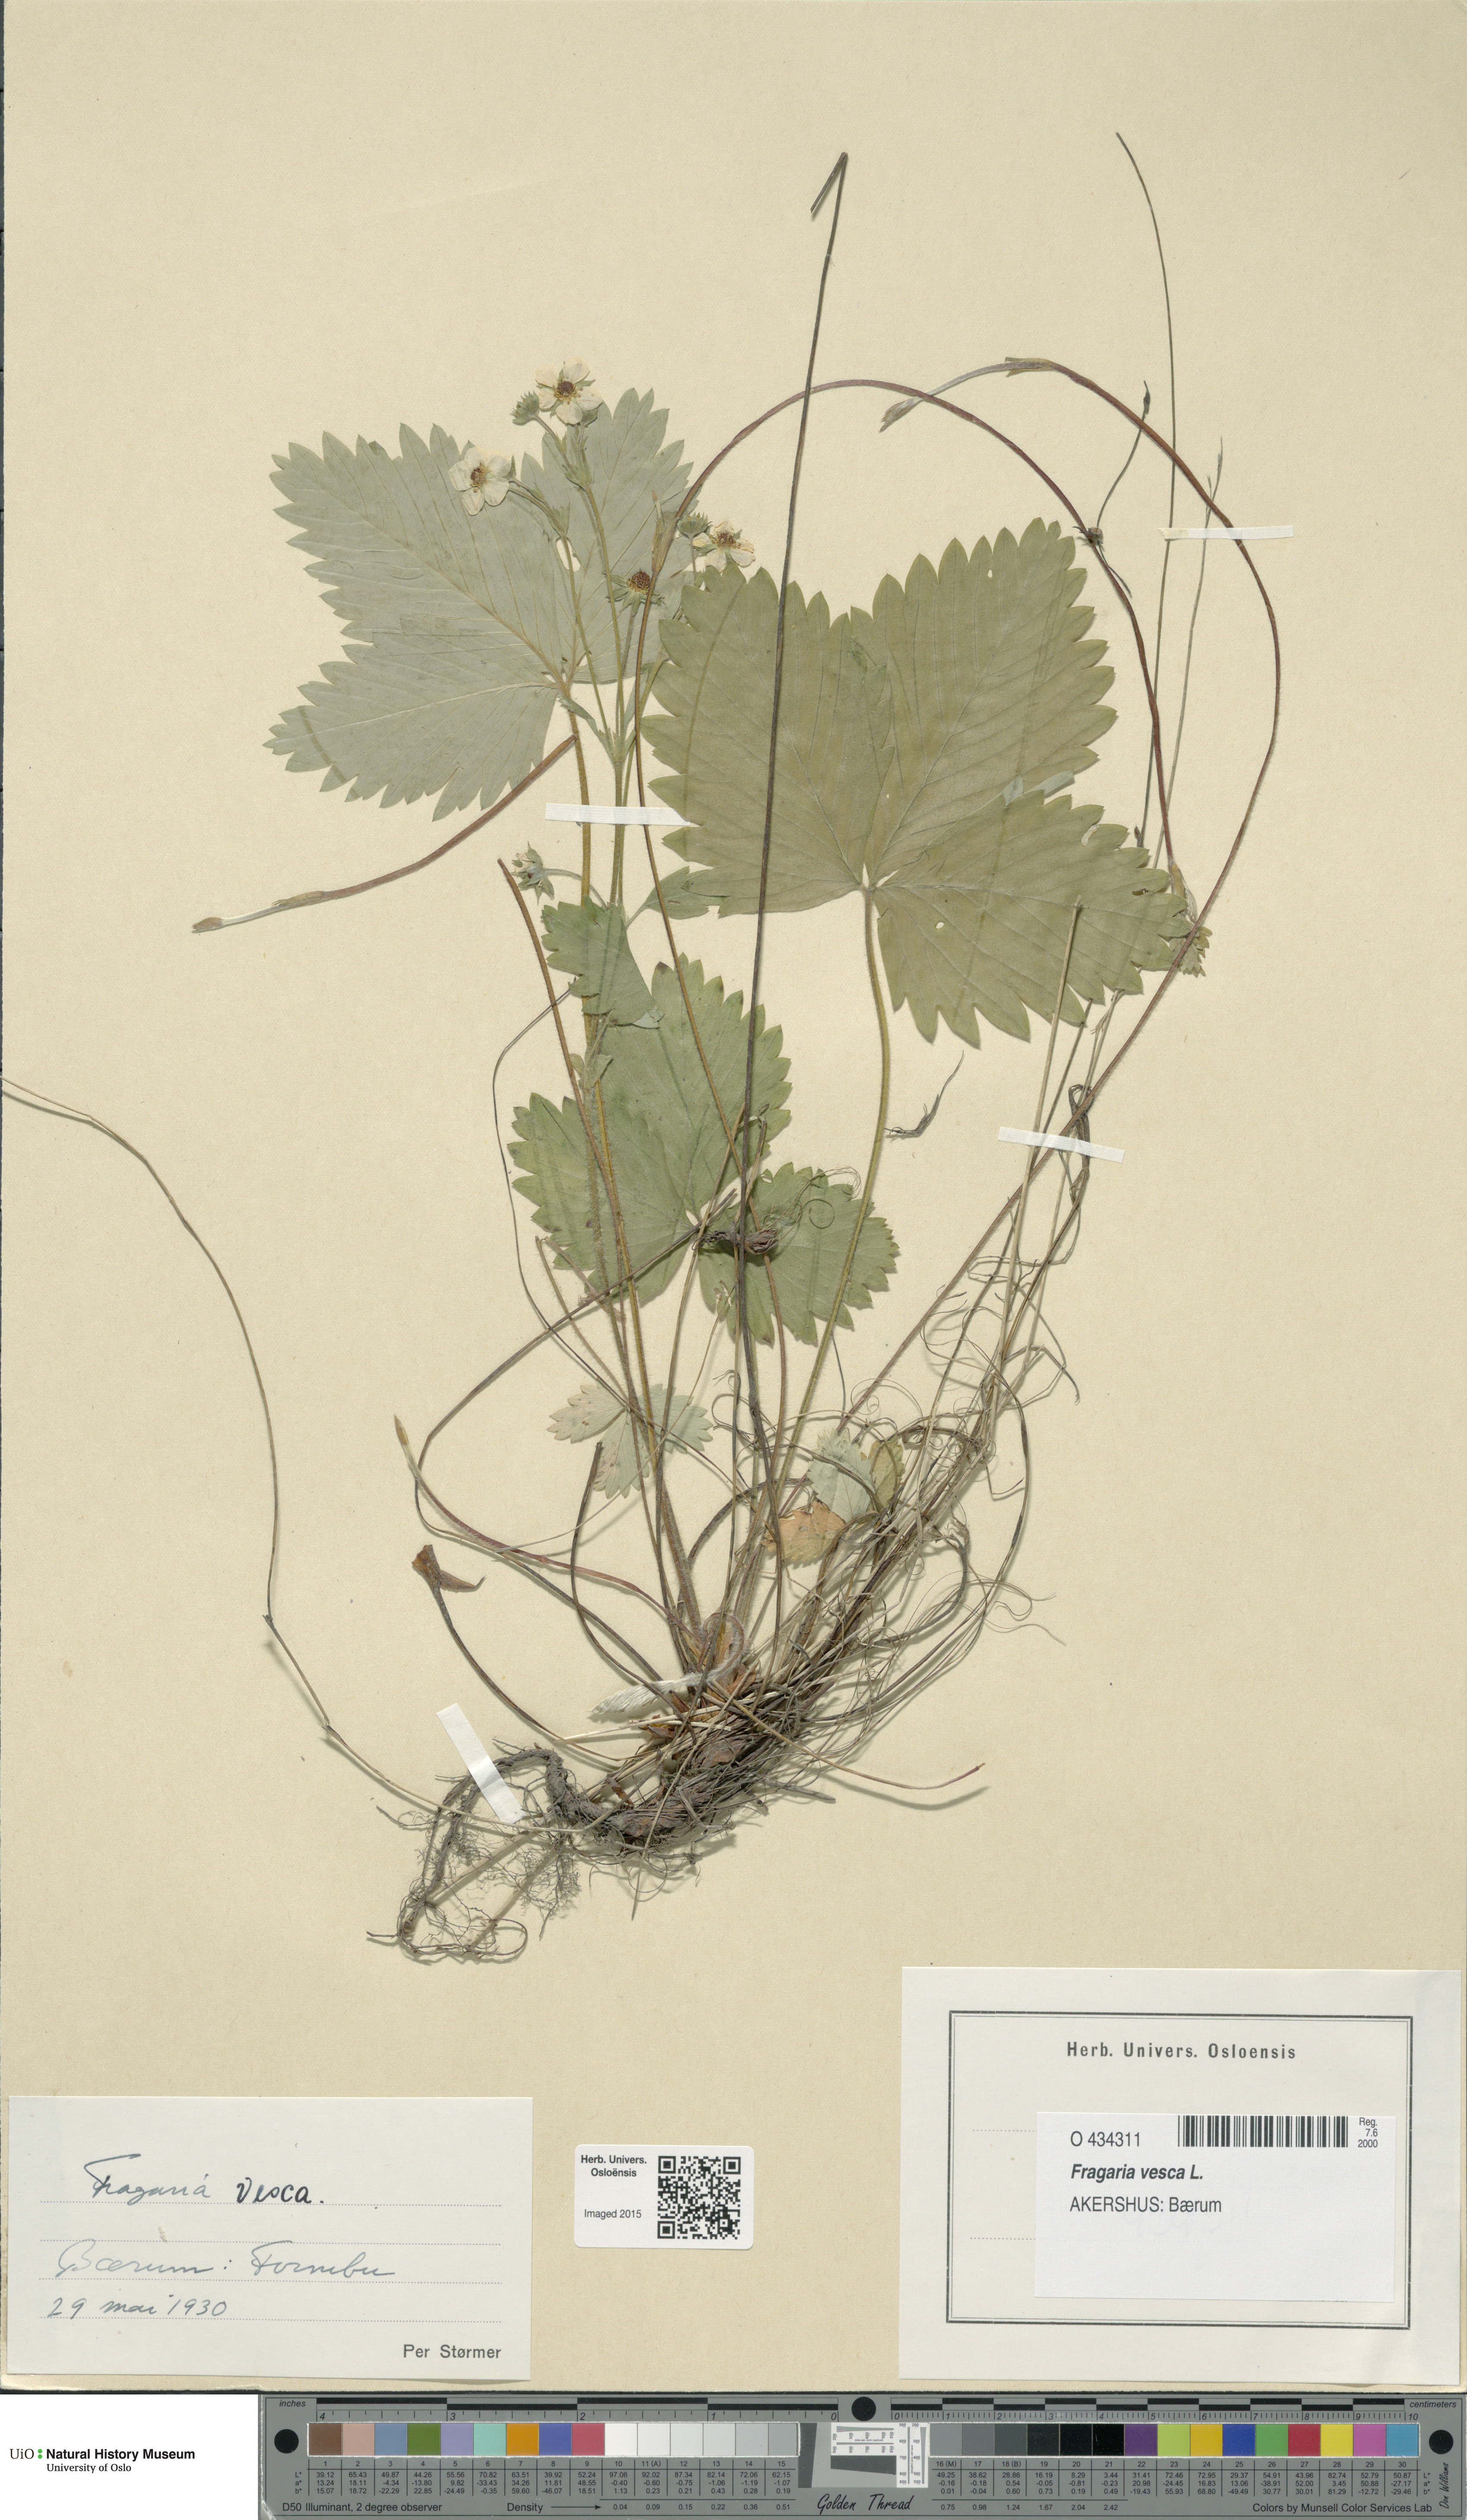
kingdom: Plantae
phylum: Tracheophyta
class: Magnoliopsida
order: Rosales
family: Rosaceae
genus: Fragaria
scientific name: Fragaria vesca
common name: Wild strawberry
